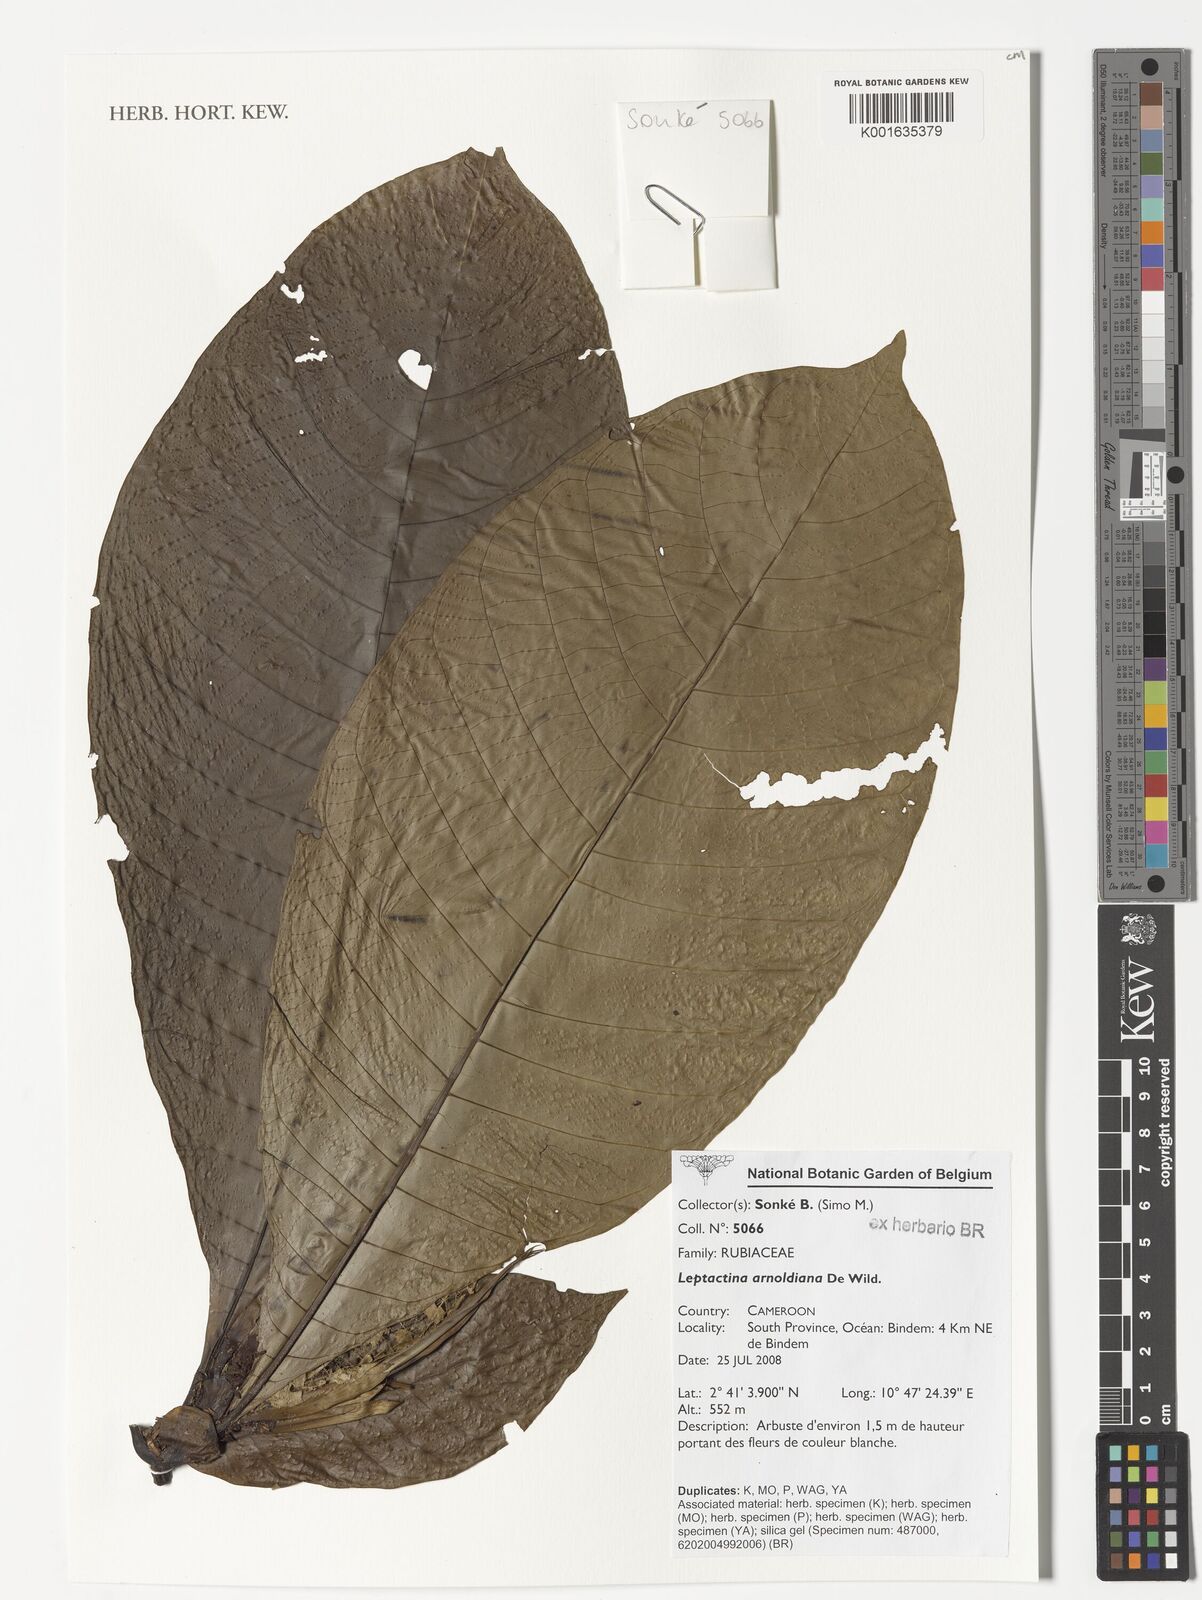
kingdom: Plantae
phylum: Tracheophyta
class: Magnoliopsida
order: Gentianales
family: Rubiaceae
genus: Leptactina
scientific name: Leptactina mannii
